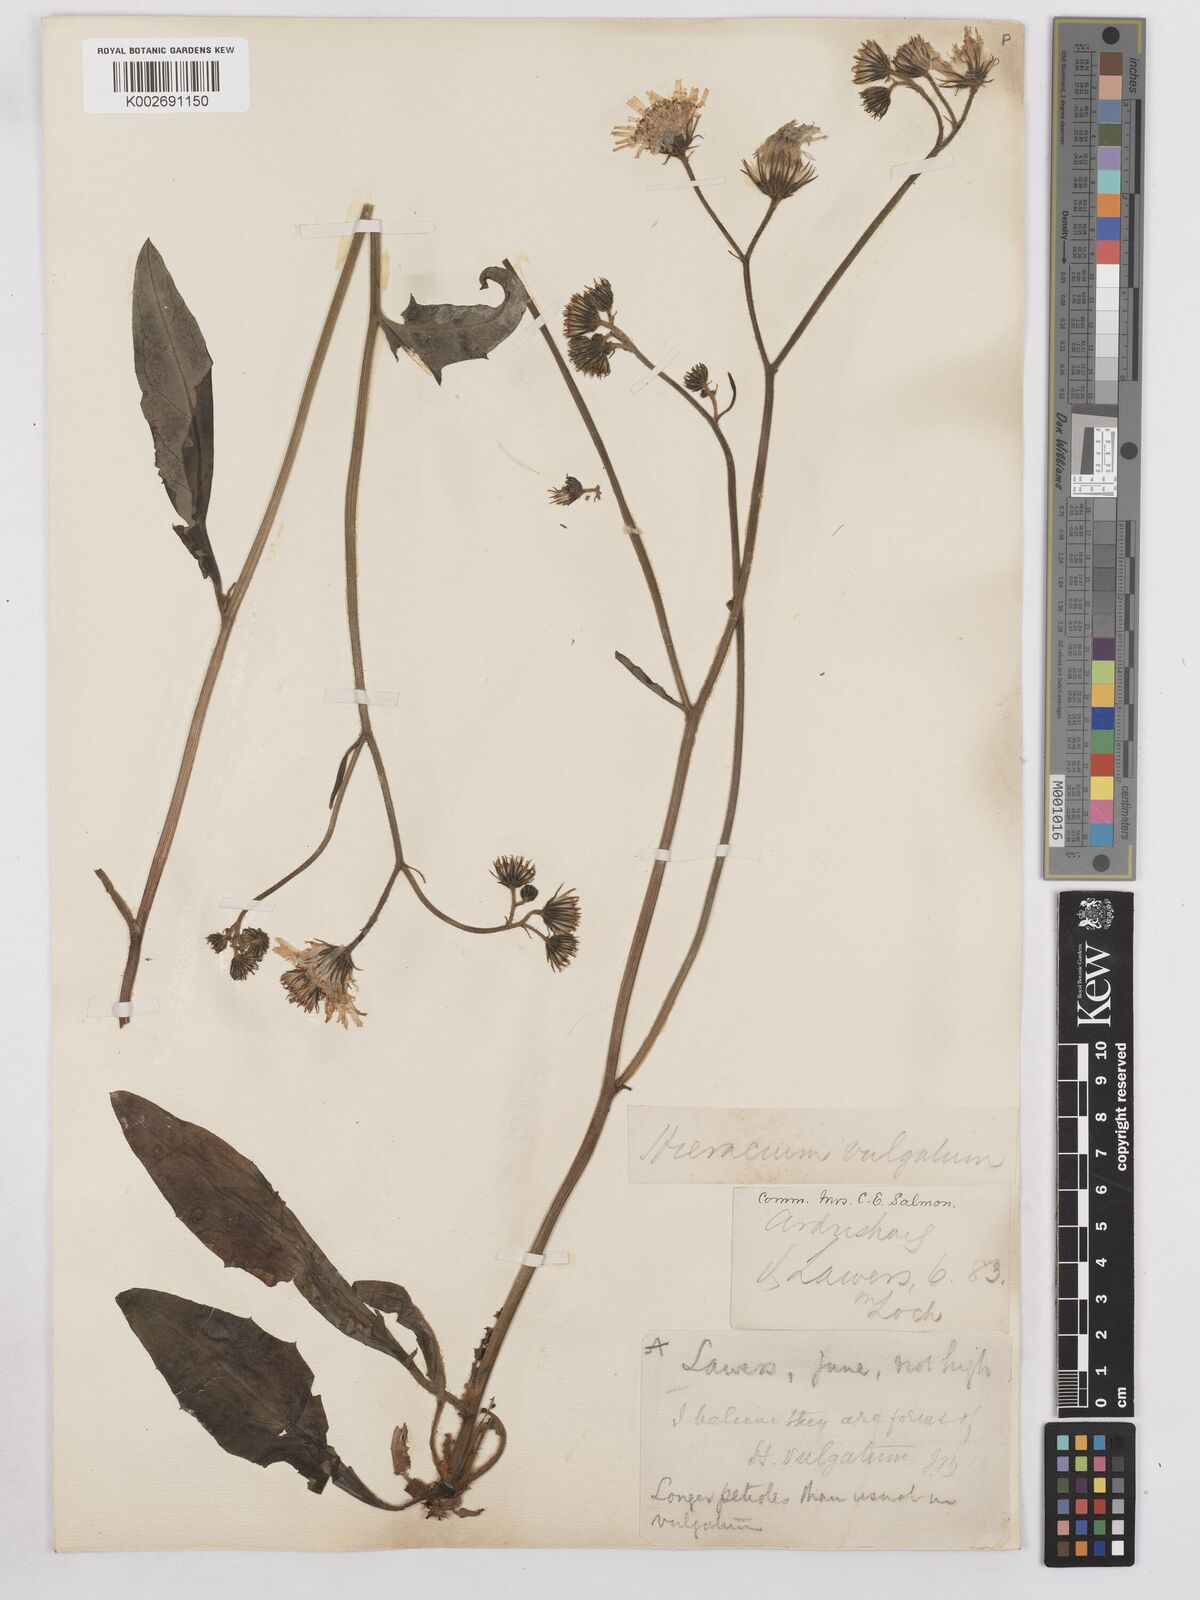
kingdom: Plantae
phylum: Tracheophyta
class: Magnoliopsida
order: Asterales
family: Asteraceae
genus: Hieracium
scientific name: Hieracium lachenalii
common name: Common hawkweed
